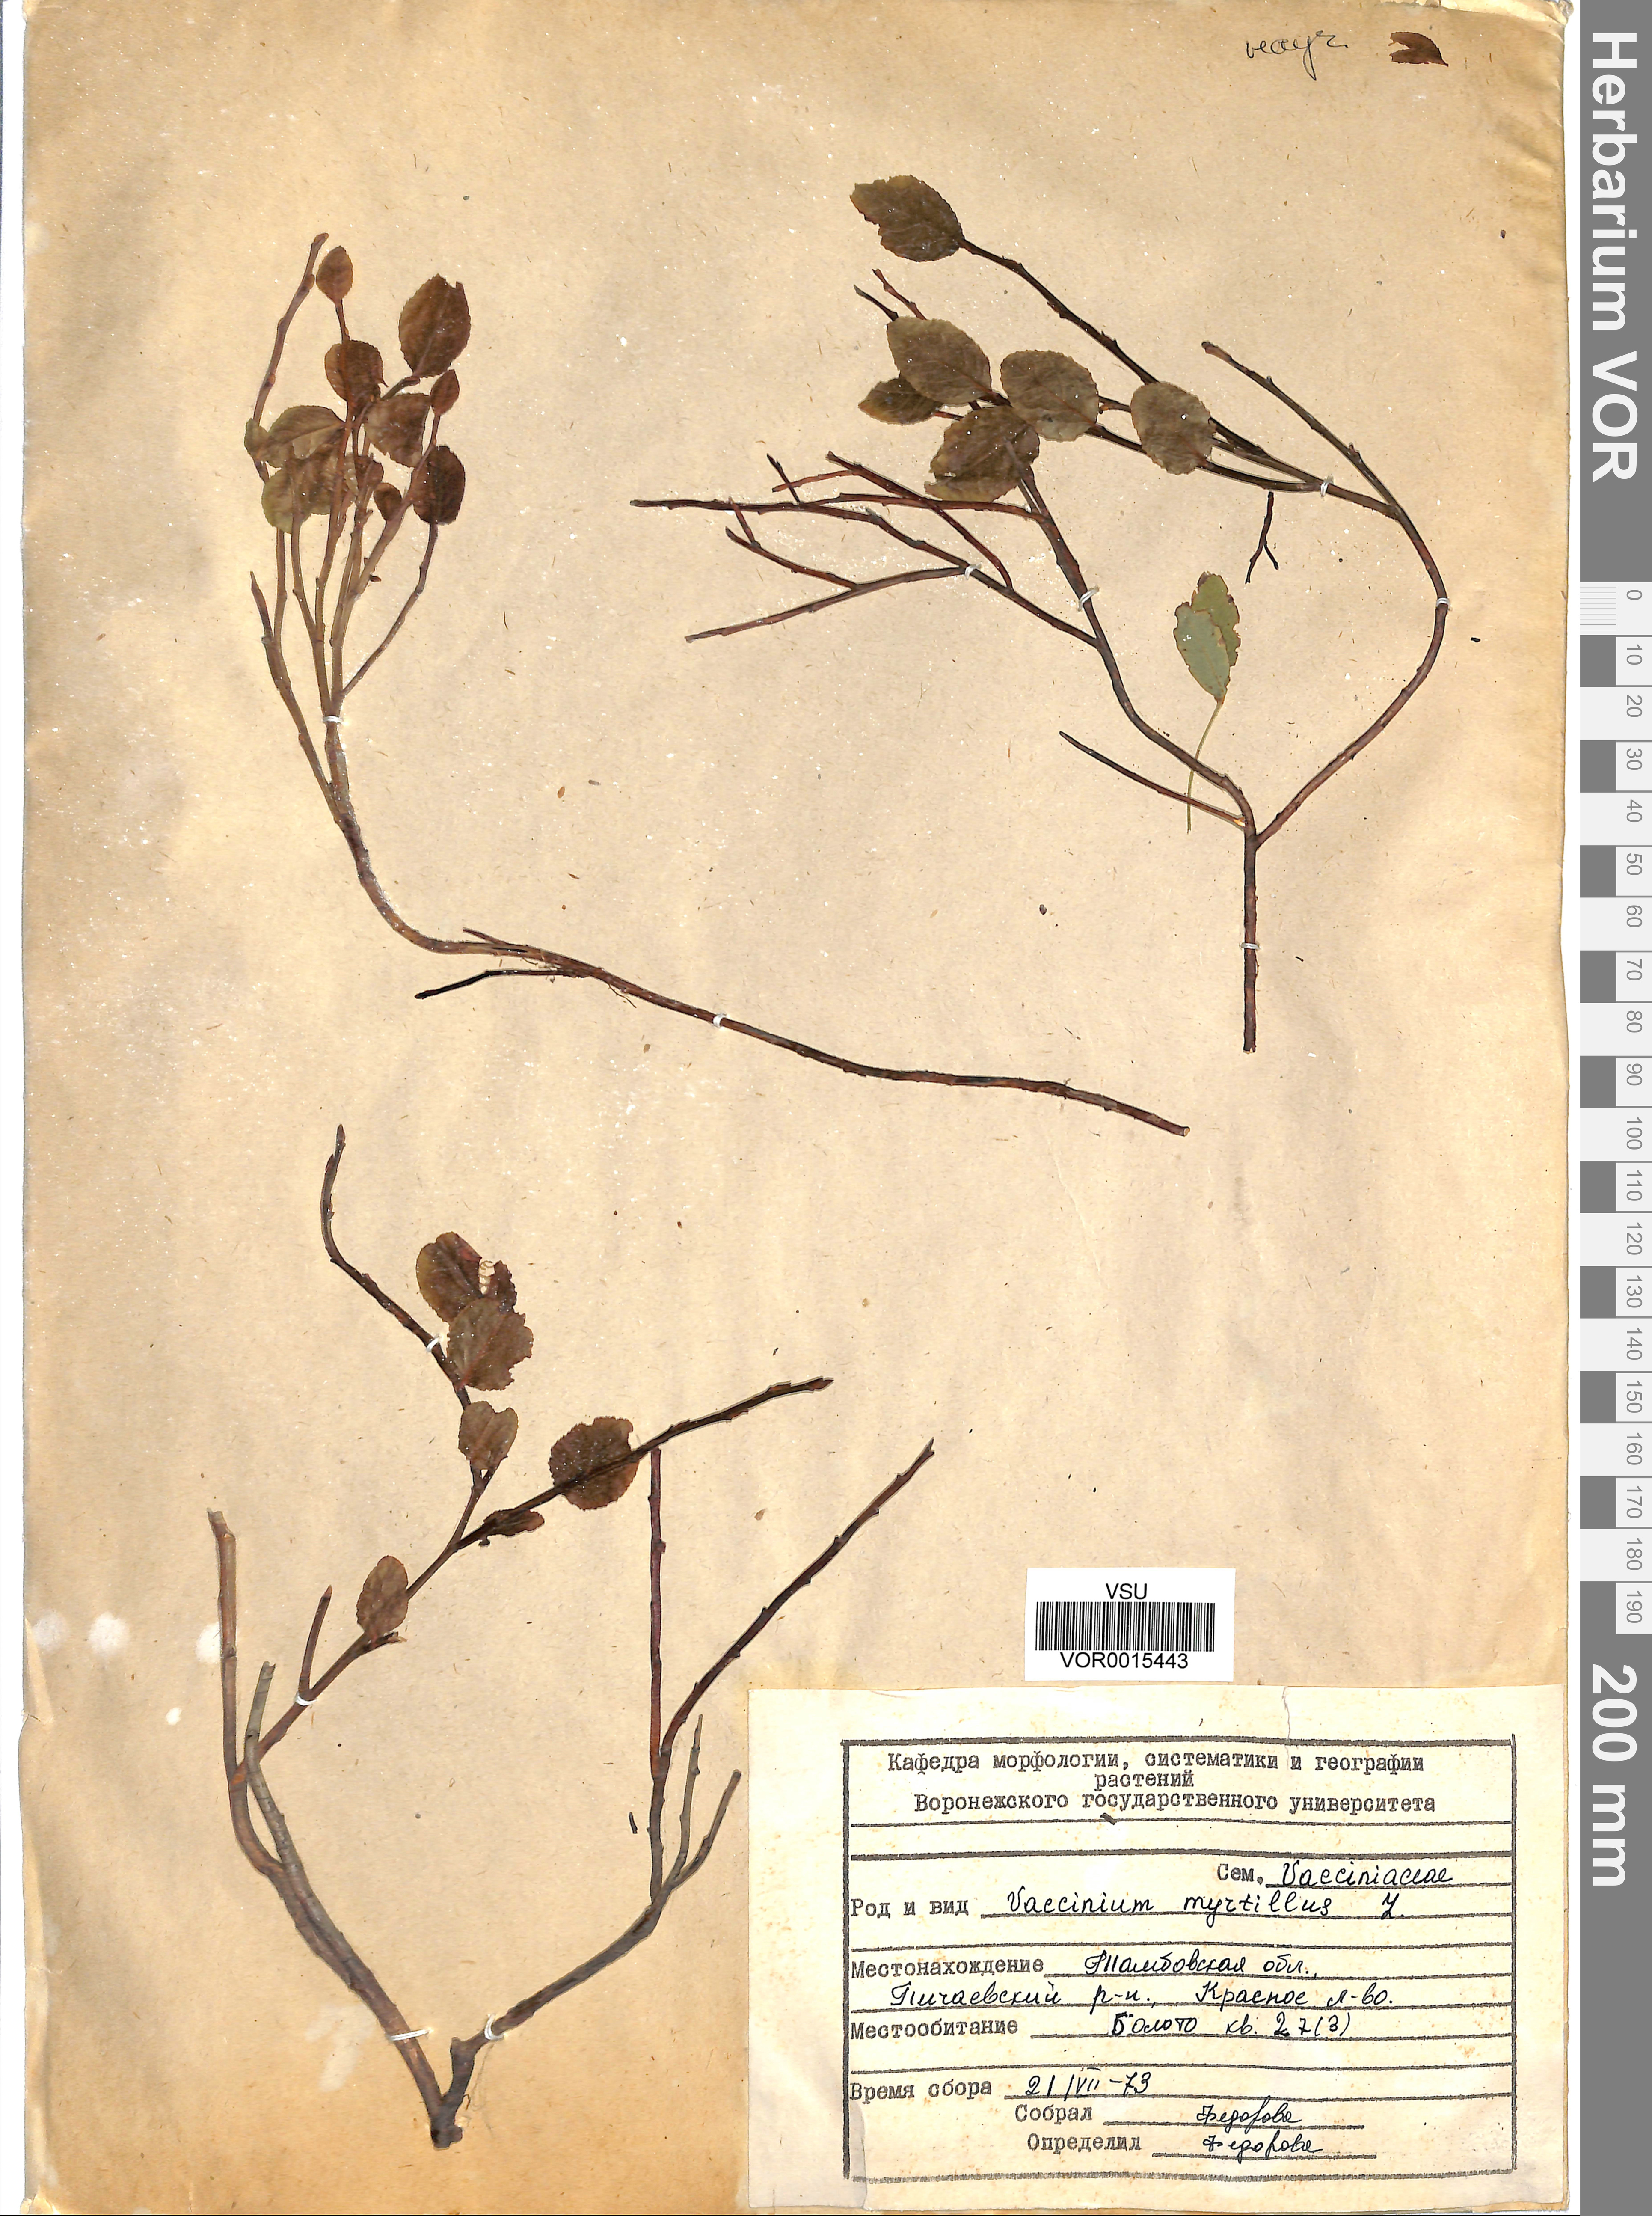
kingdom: Plantae
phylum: Tracheophyta
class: Magnoliopsida
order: Ericales
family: Ericaceae
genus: Vaccinium
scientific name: Vaccinium myrtillus
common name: Bilberry
